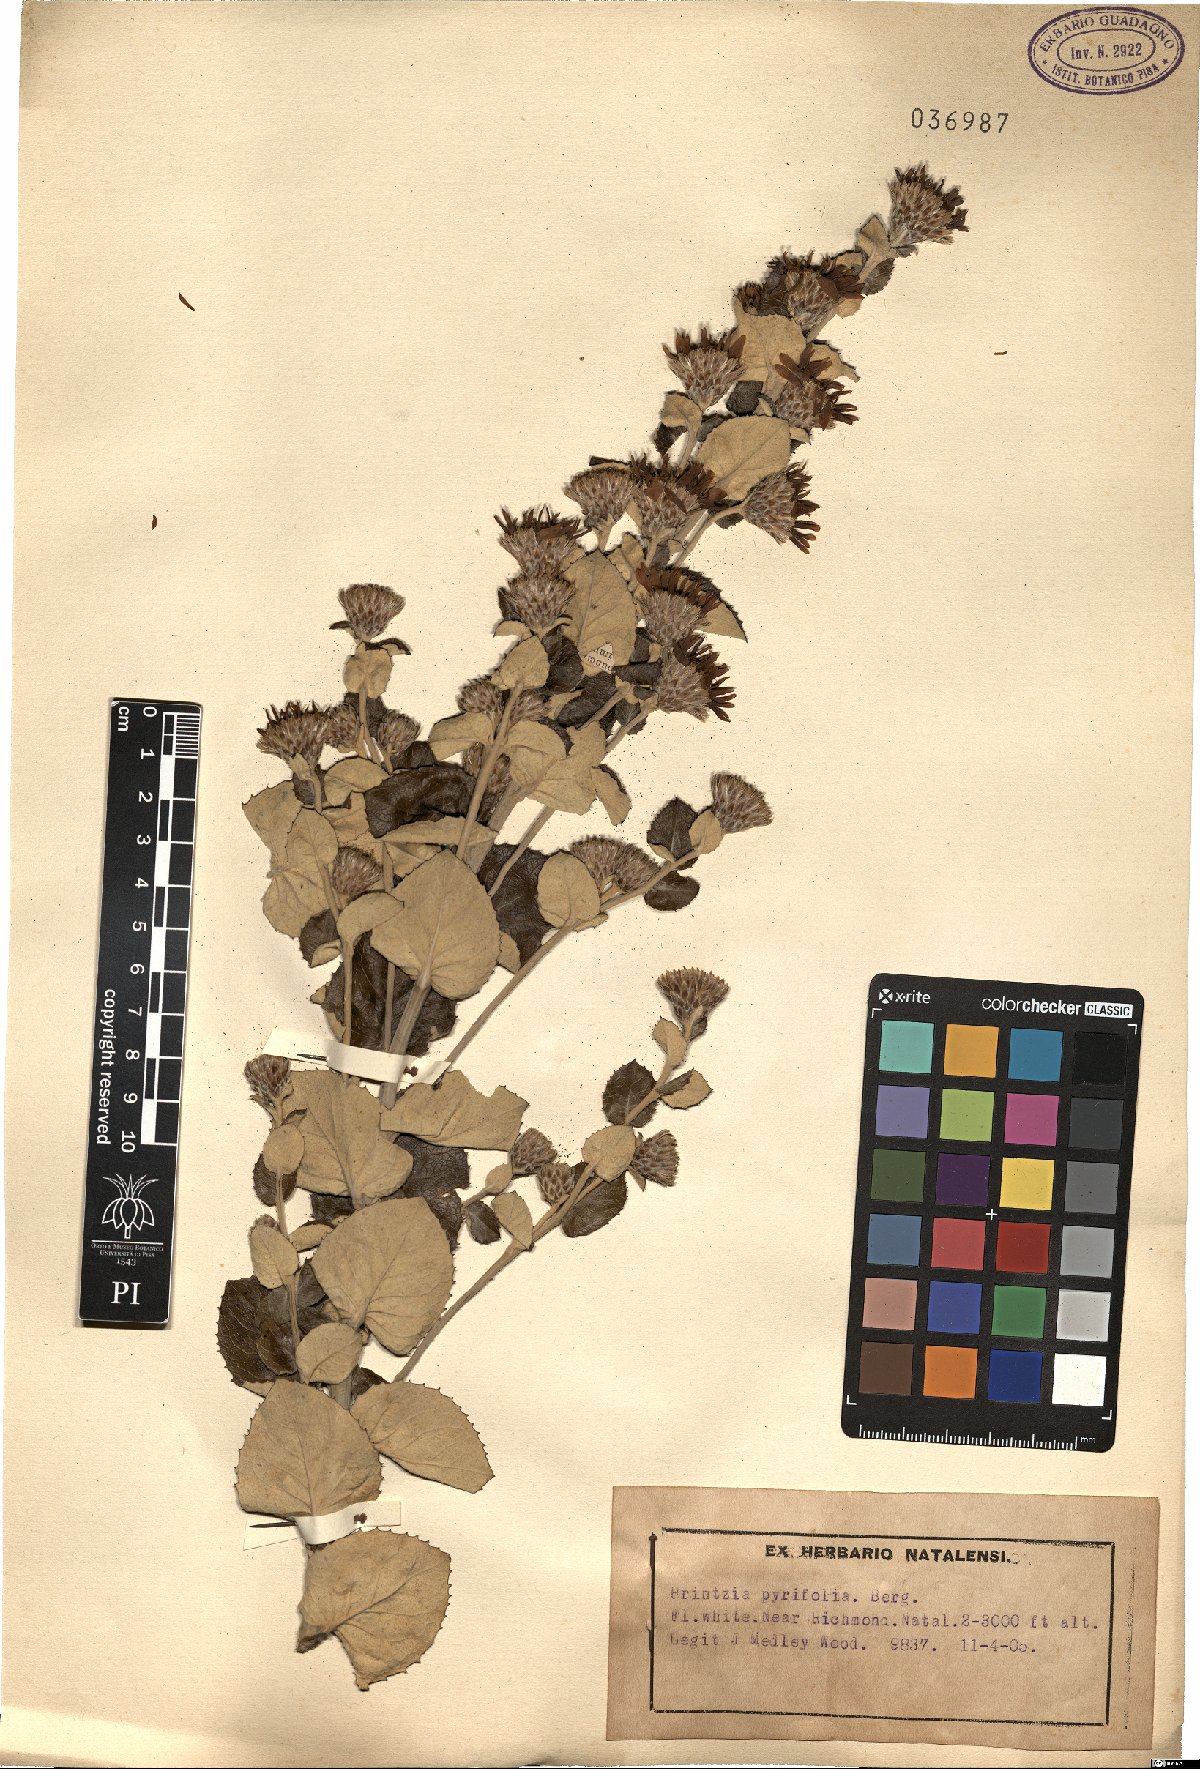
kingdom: Plantae
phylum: Tracheophyta
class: Magnoliopsida
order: Asterales
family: Asteraceae
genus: Printzia
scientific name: Printzia pyrifolia
